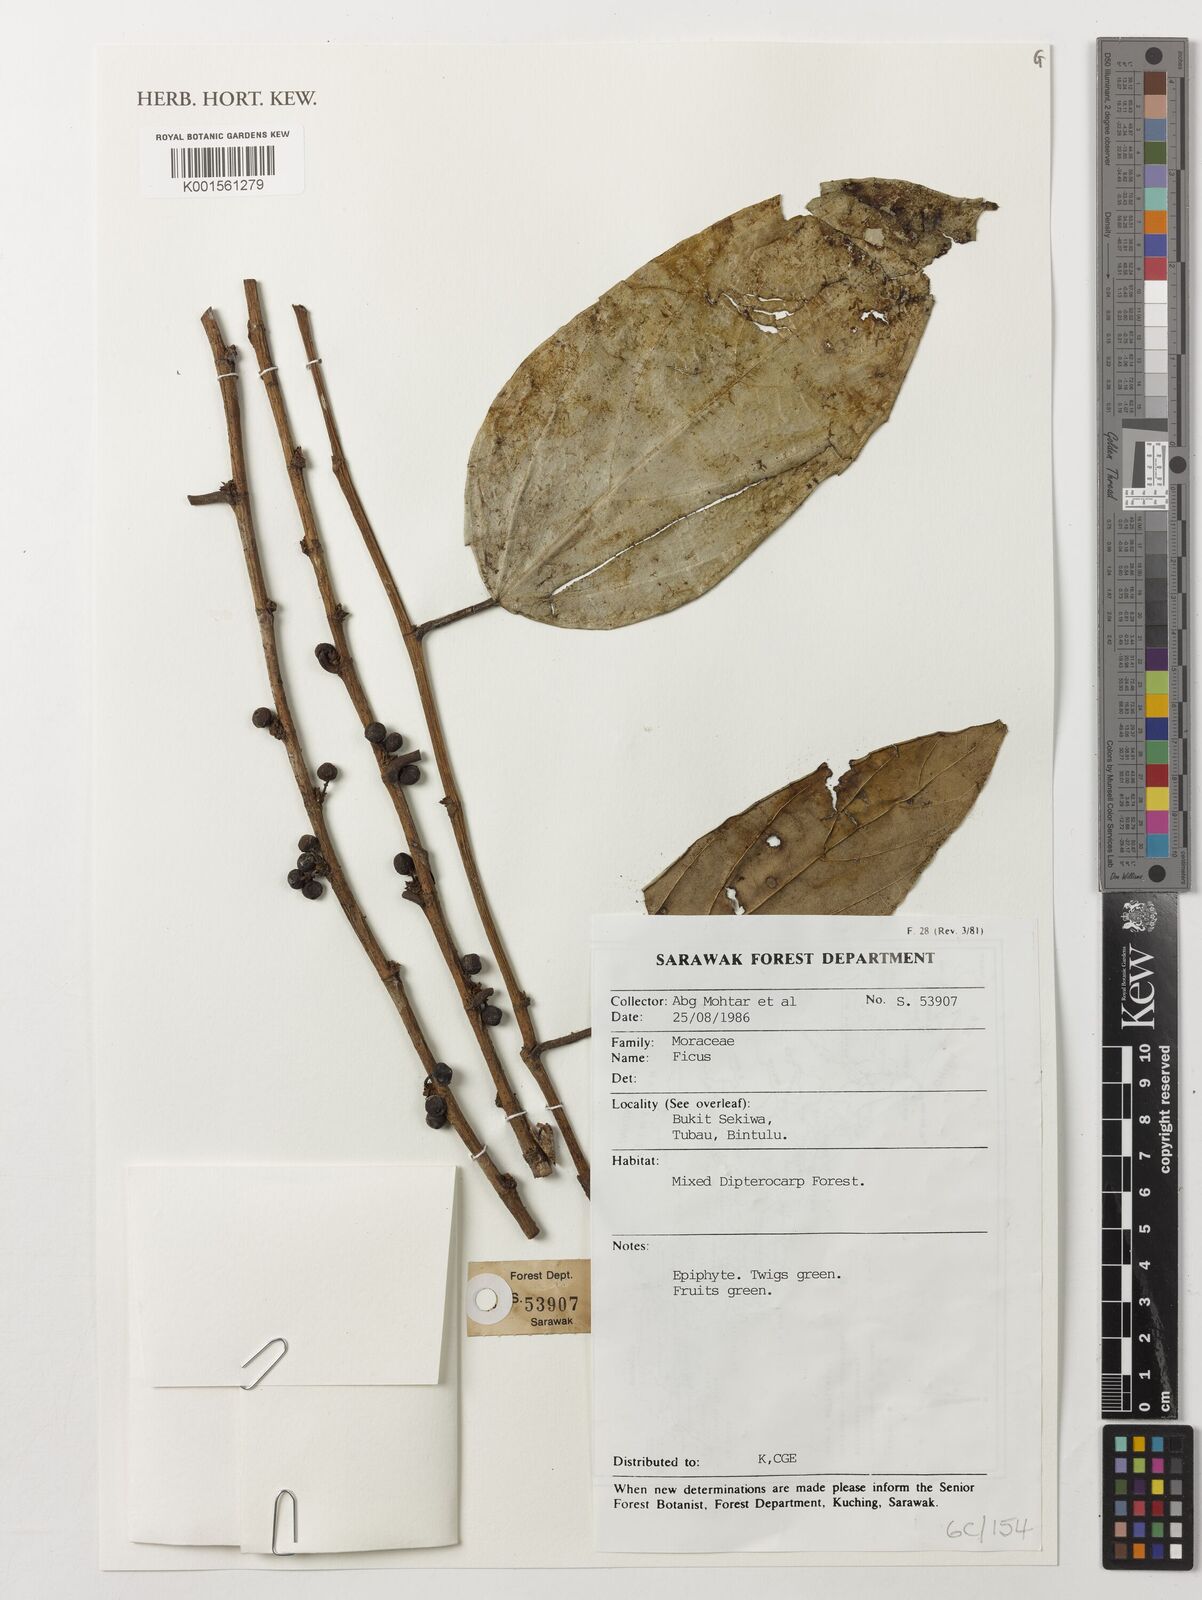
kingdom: Plantae
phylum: Tracheophyta
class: Magnoliopsida
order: Rosales
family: Moraceae
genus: Ficus
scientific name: Ficus
